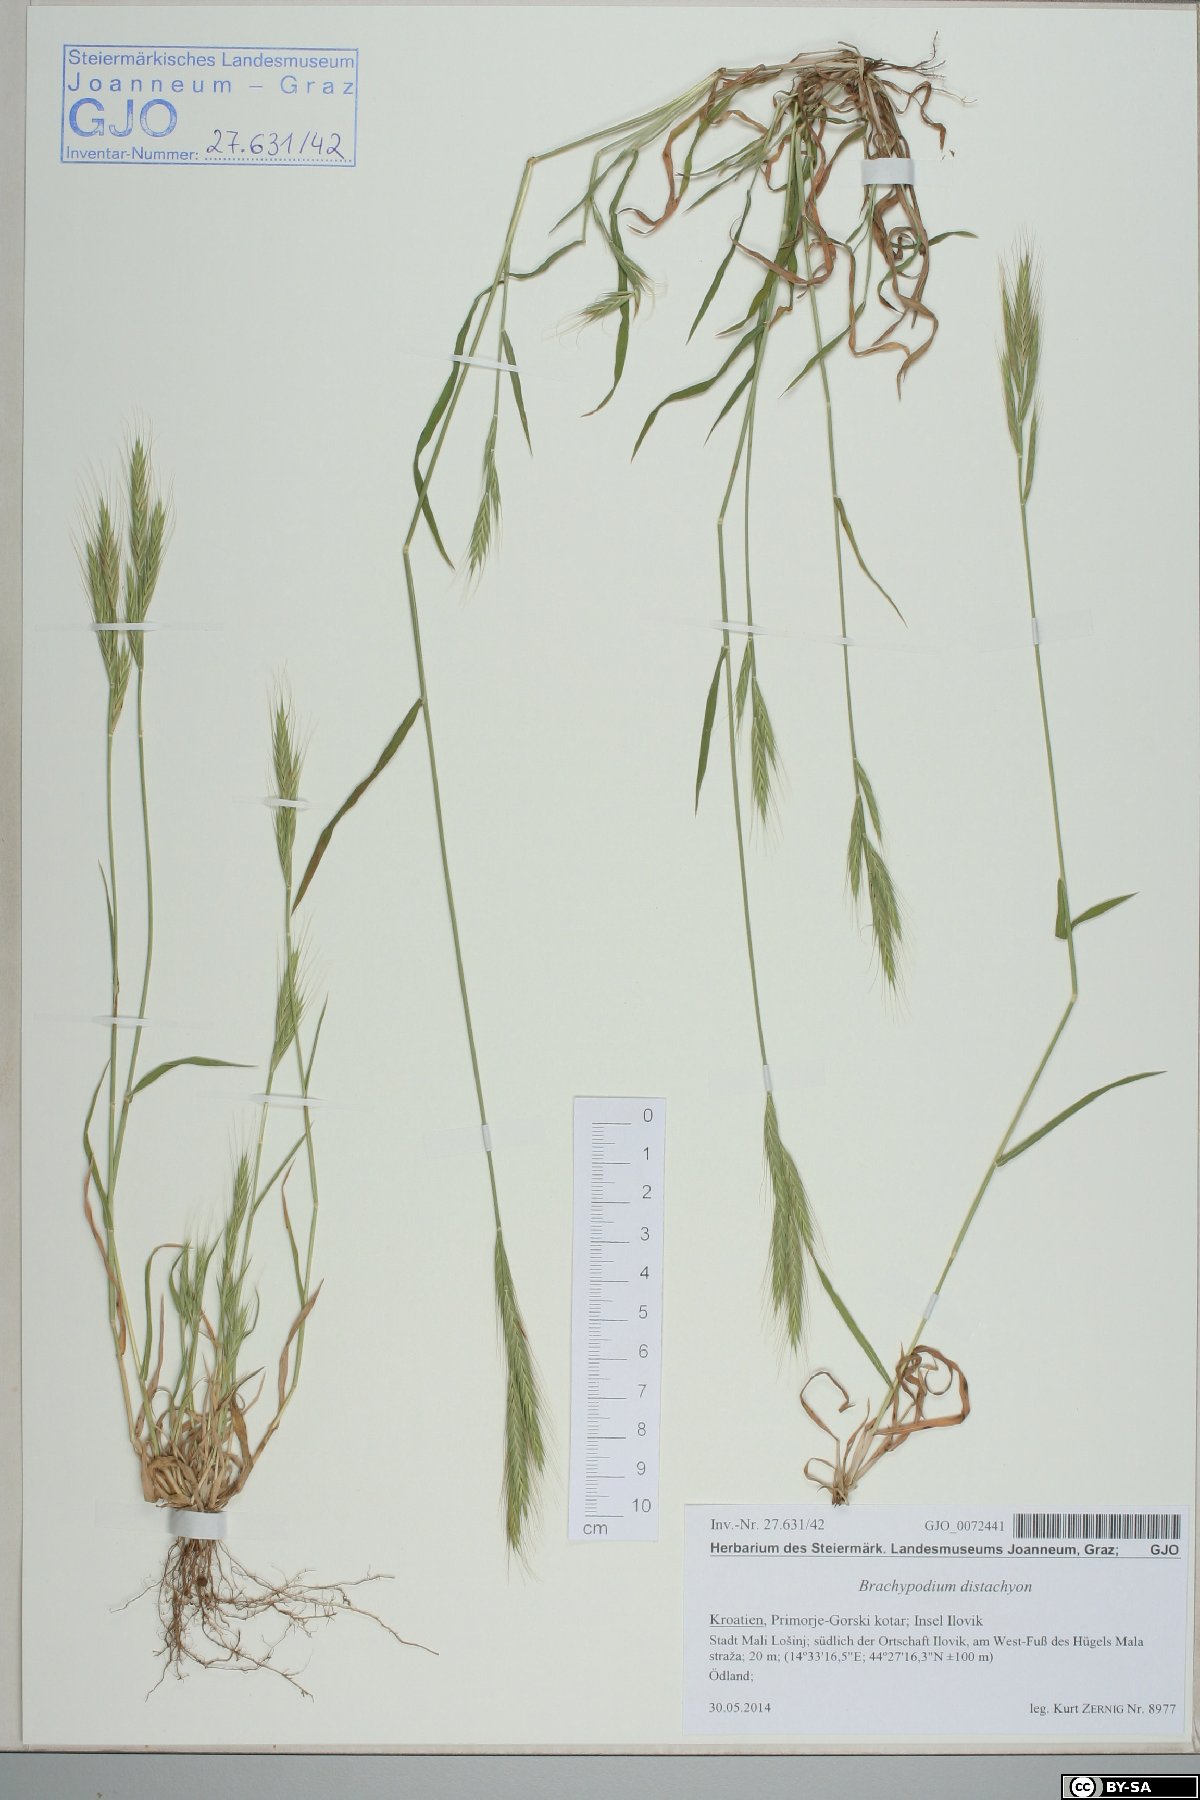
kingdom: Plantae
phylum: Tracheophyta
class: Liliopsida
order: Poales
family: Poaceae
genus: Brachypodium
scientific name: Brachypodium distachyon
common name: Stiff brome
